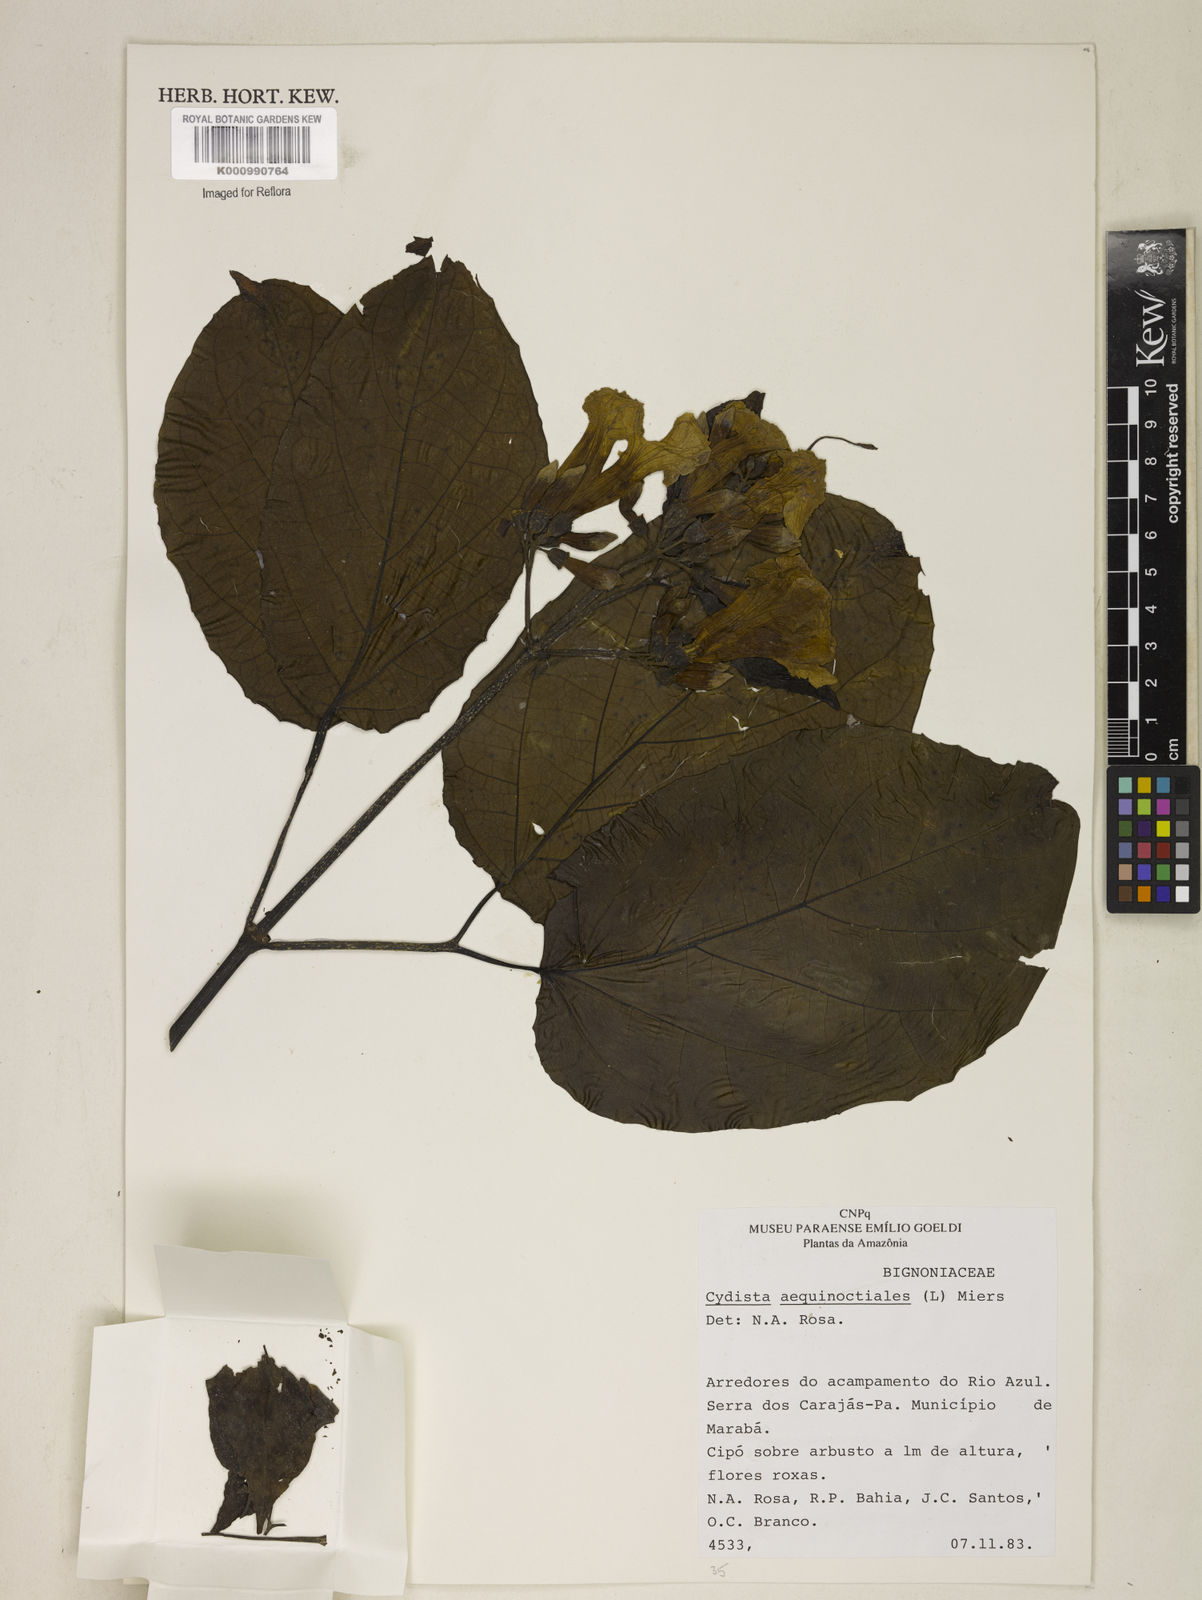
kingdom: Plantae
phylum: Tracheophyta
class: Magnoliopsida
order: Lamiales
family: Bignoniaceae
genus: Bignonia
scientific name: Bignonia aequinoctialis
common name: Garlicvine
